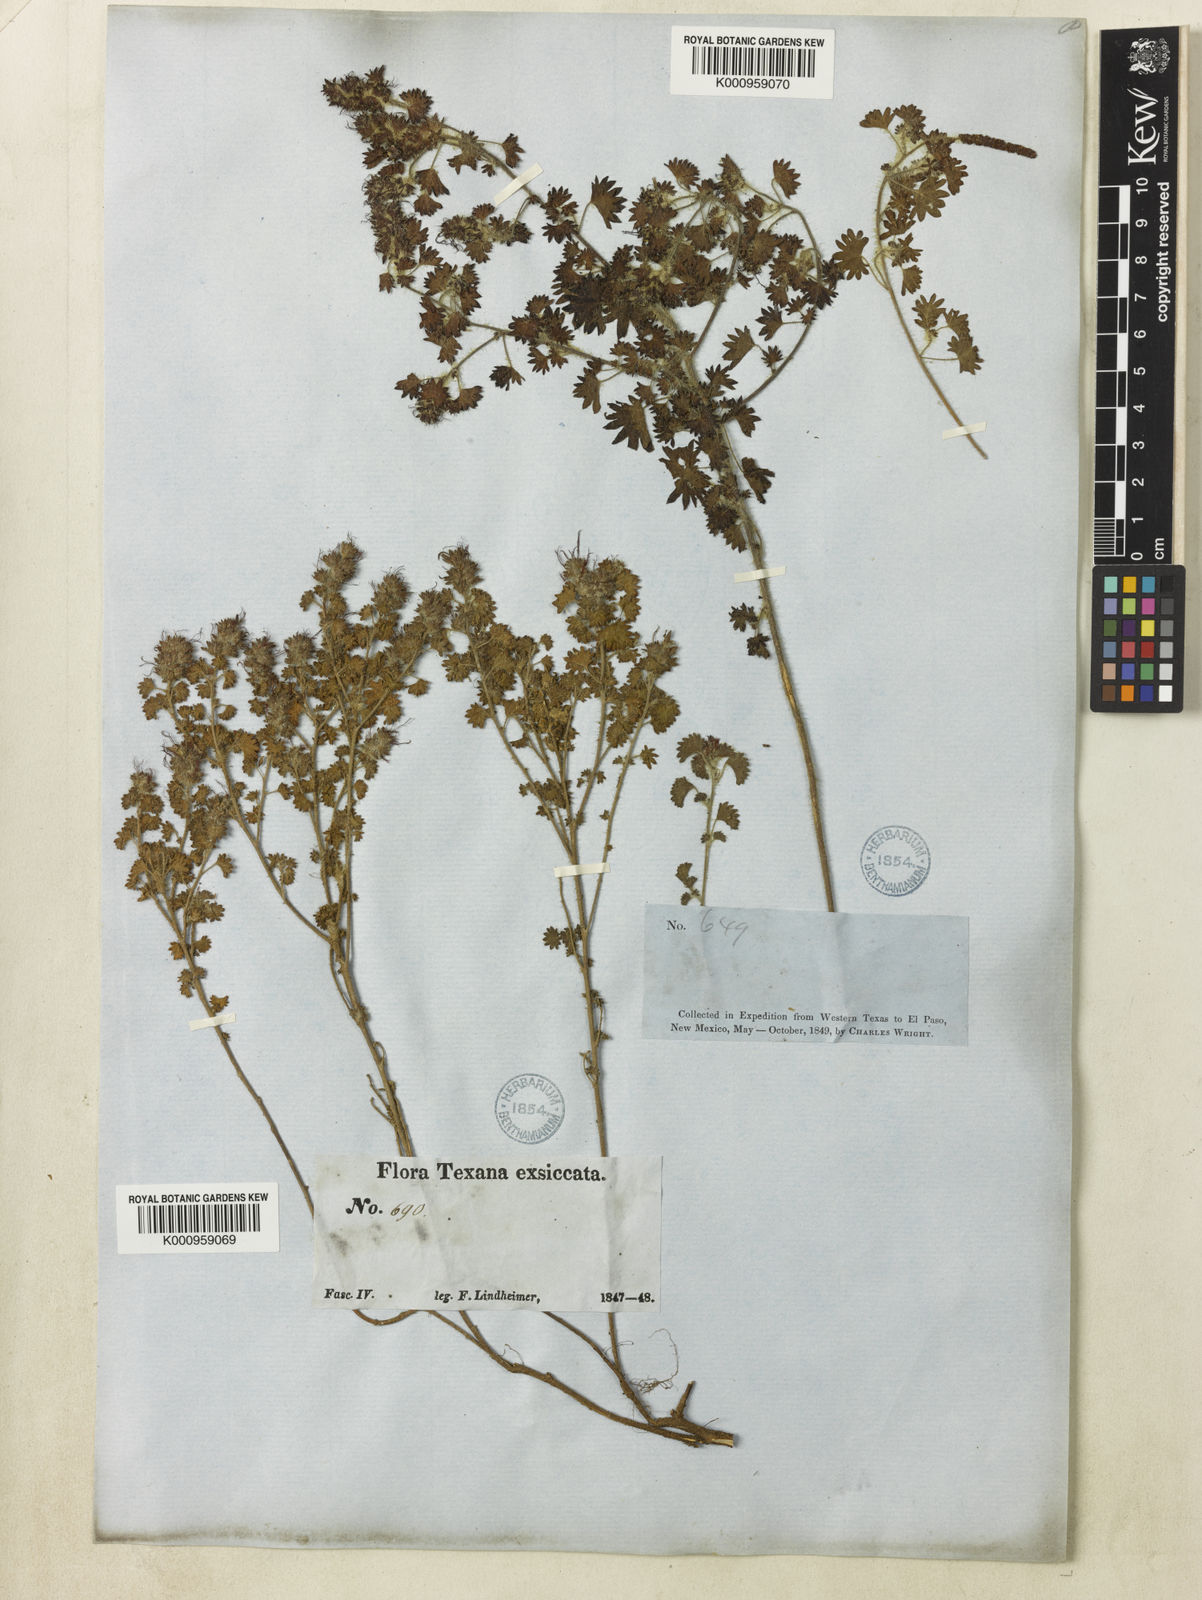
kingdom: Plantae
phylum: Tracheophyta
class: Magnoliopsida
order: Malpighiales
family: Euphorbiaceae
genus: Acalypha
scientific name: Acalypha radians
